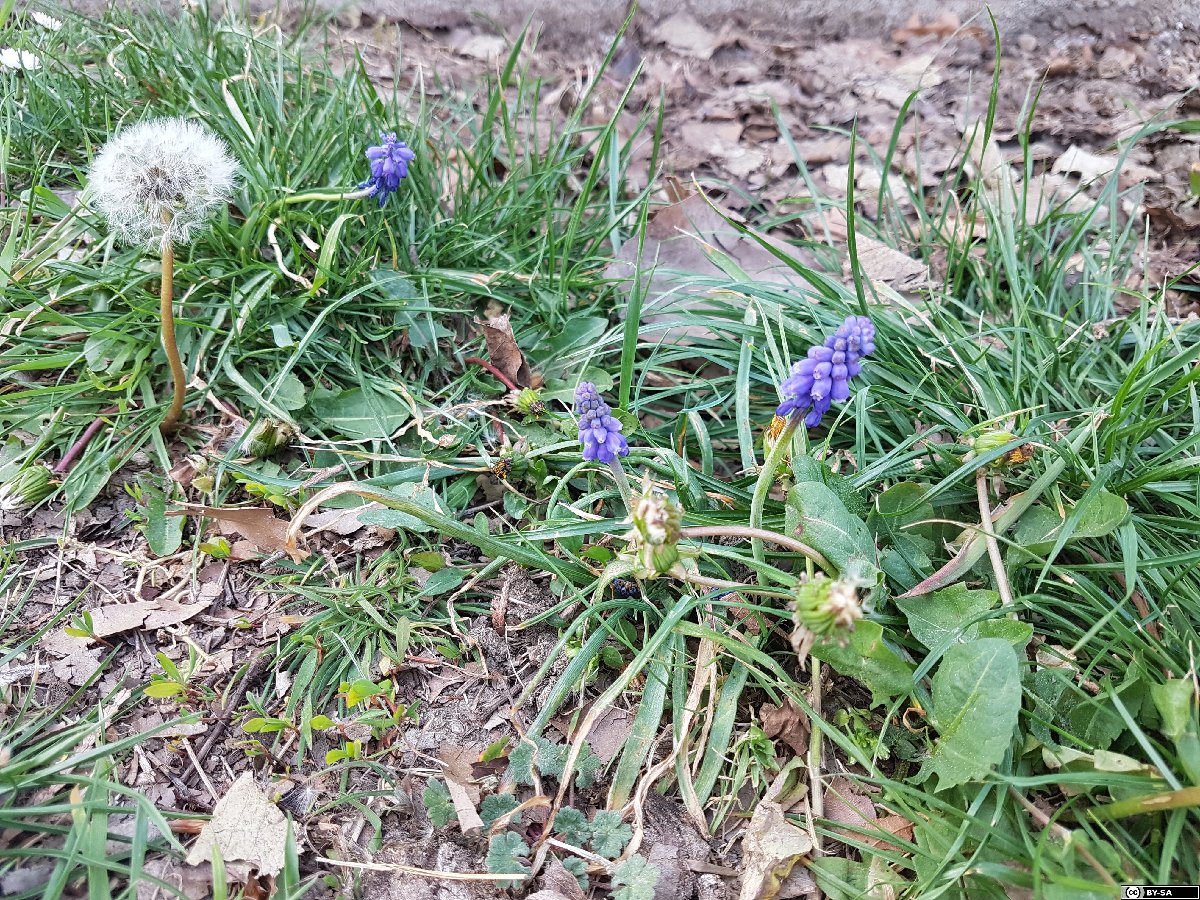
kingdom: Plantae
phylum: Tracheophyta
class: Liliopsida
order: Asparagales
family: Asparagaceae
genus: Muscari
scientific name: Muscari armeniacum
